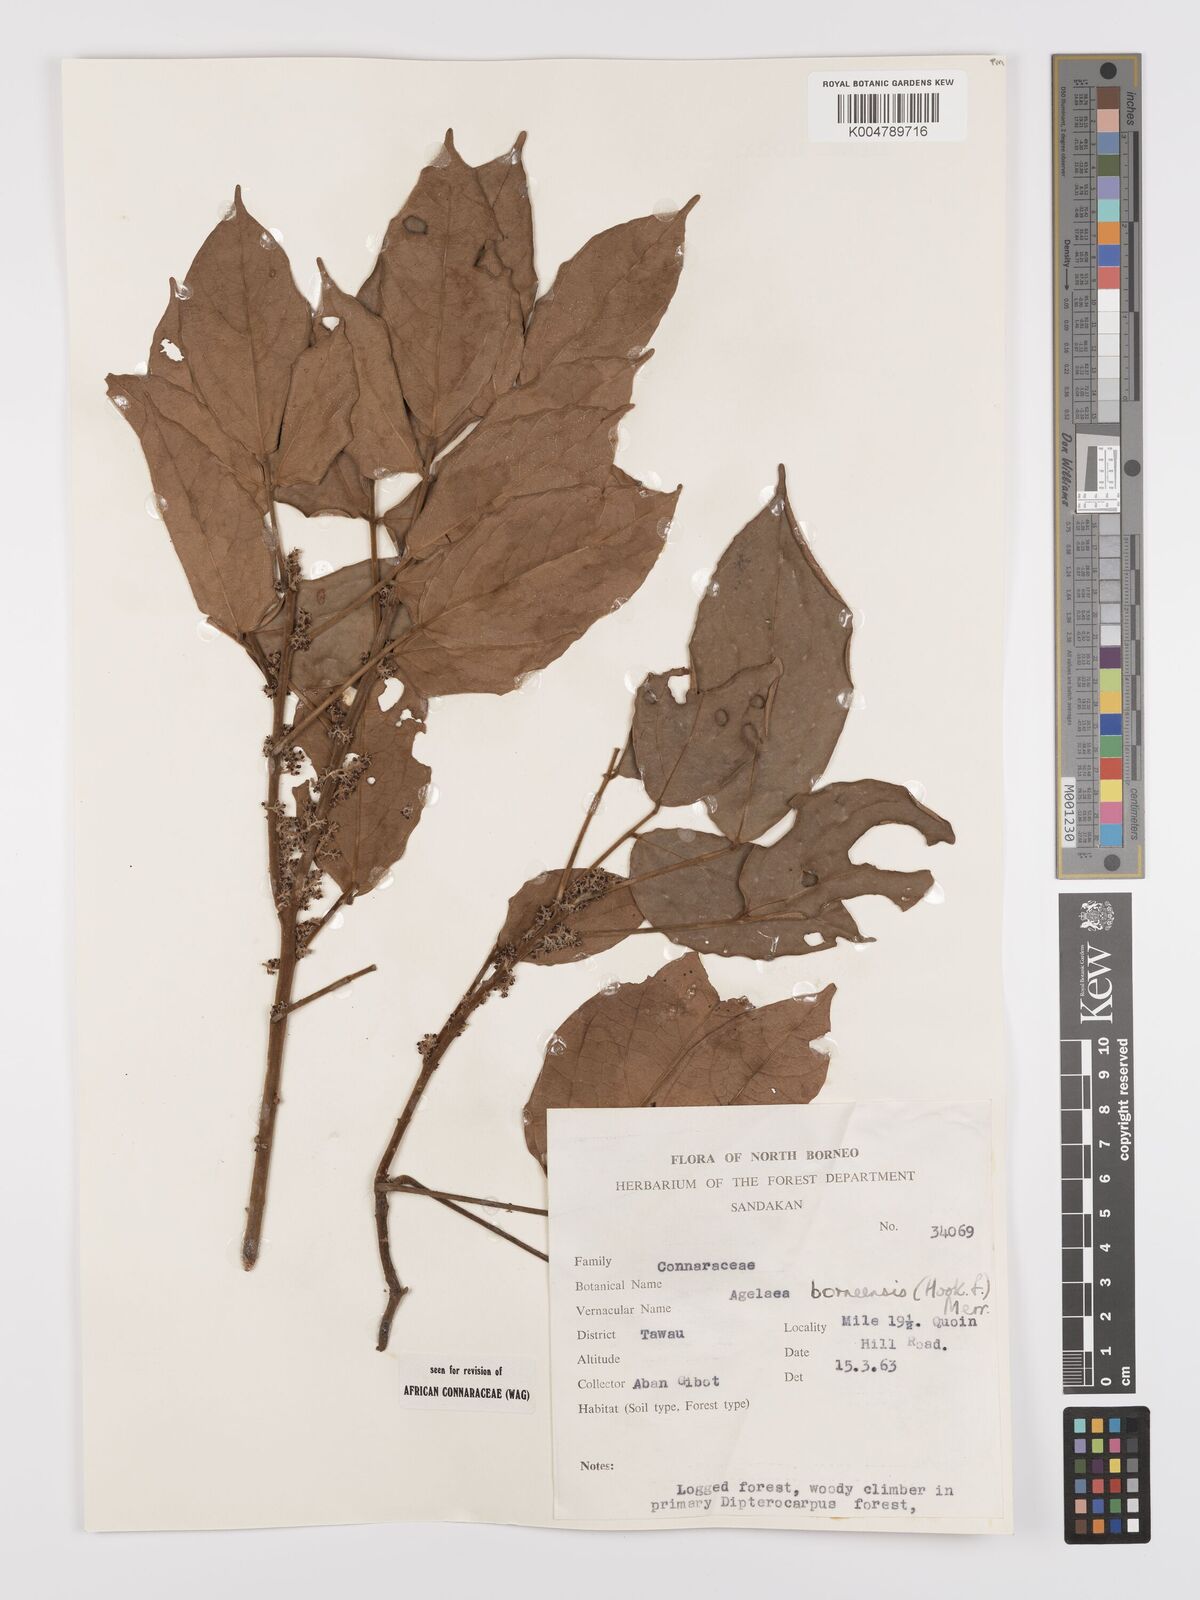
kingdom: Plantae
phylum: Tracheophyta
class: Magnoliopsida
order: Oxalidales
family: Connaraceae
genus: Agelaea
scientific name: Agelaea borneensis
